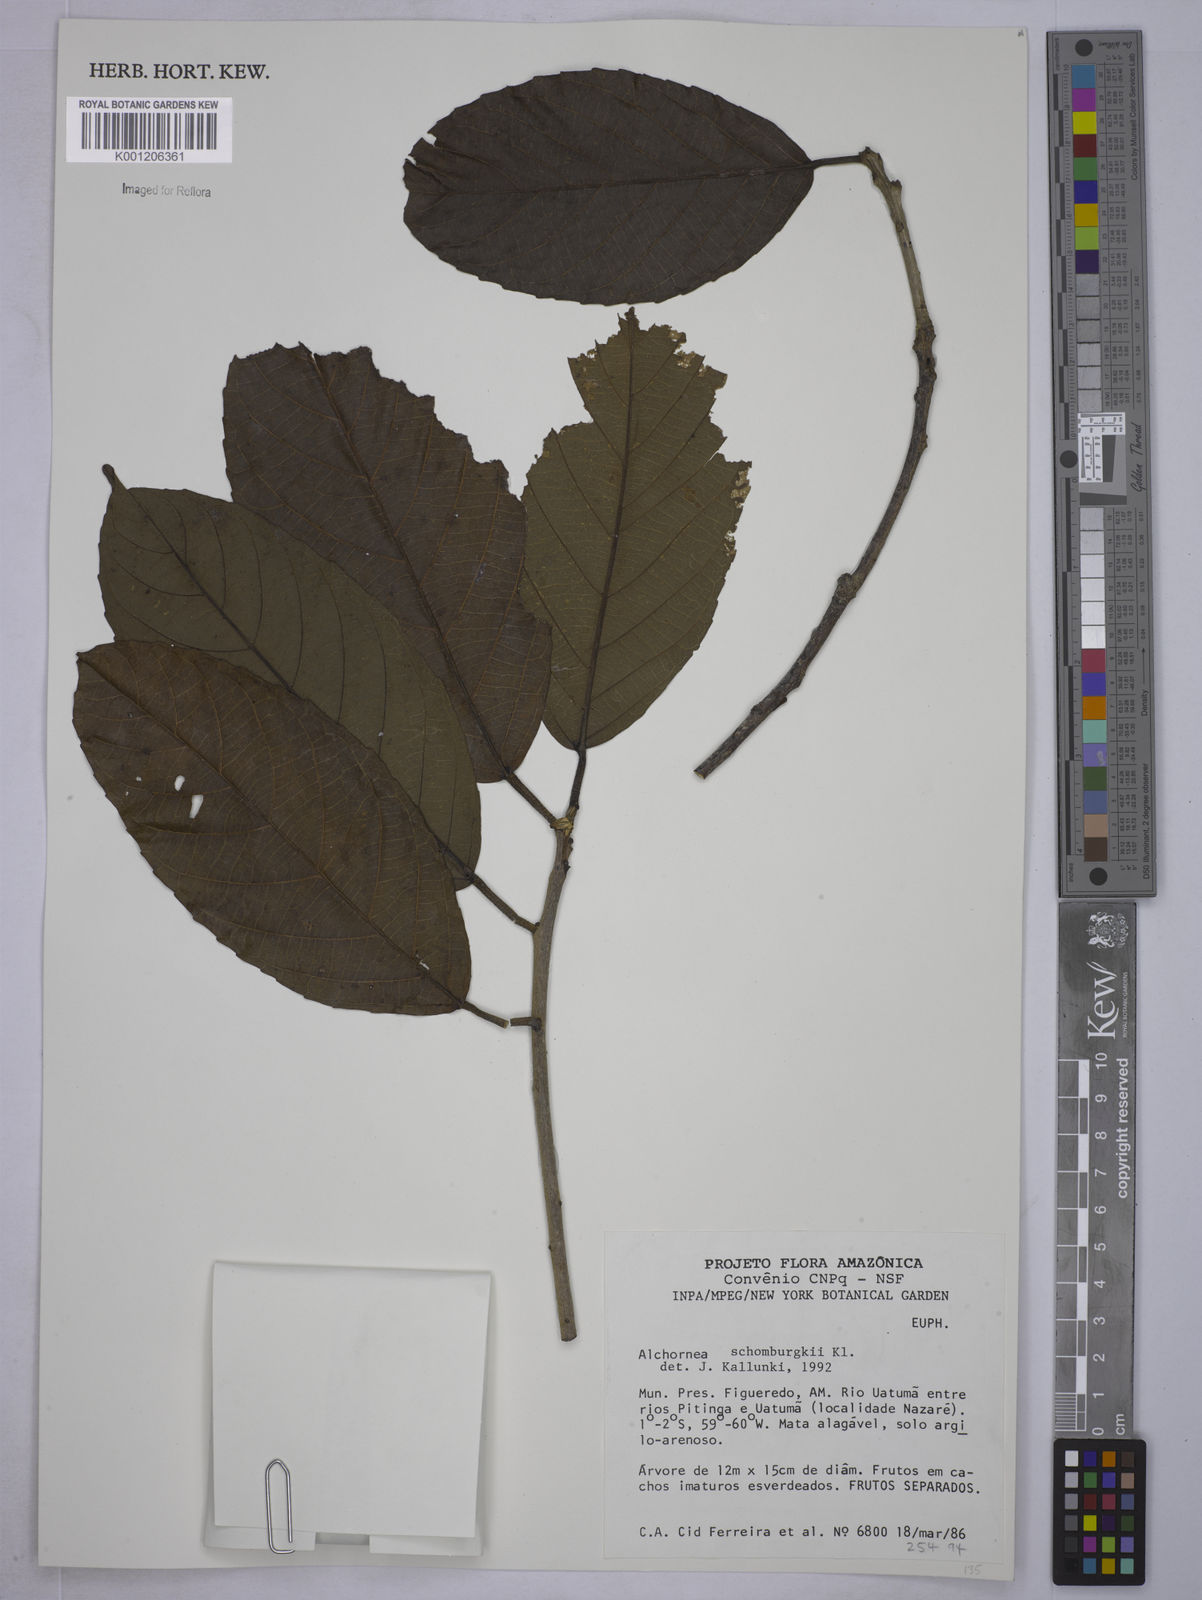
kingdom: Plantae
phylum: Tracheophyta
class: Magnoliopsida
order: Malpighiales
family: Euphorbiaceae
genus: Alchornea
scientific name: Alchornea discolor
